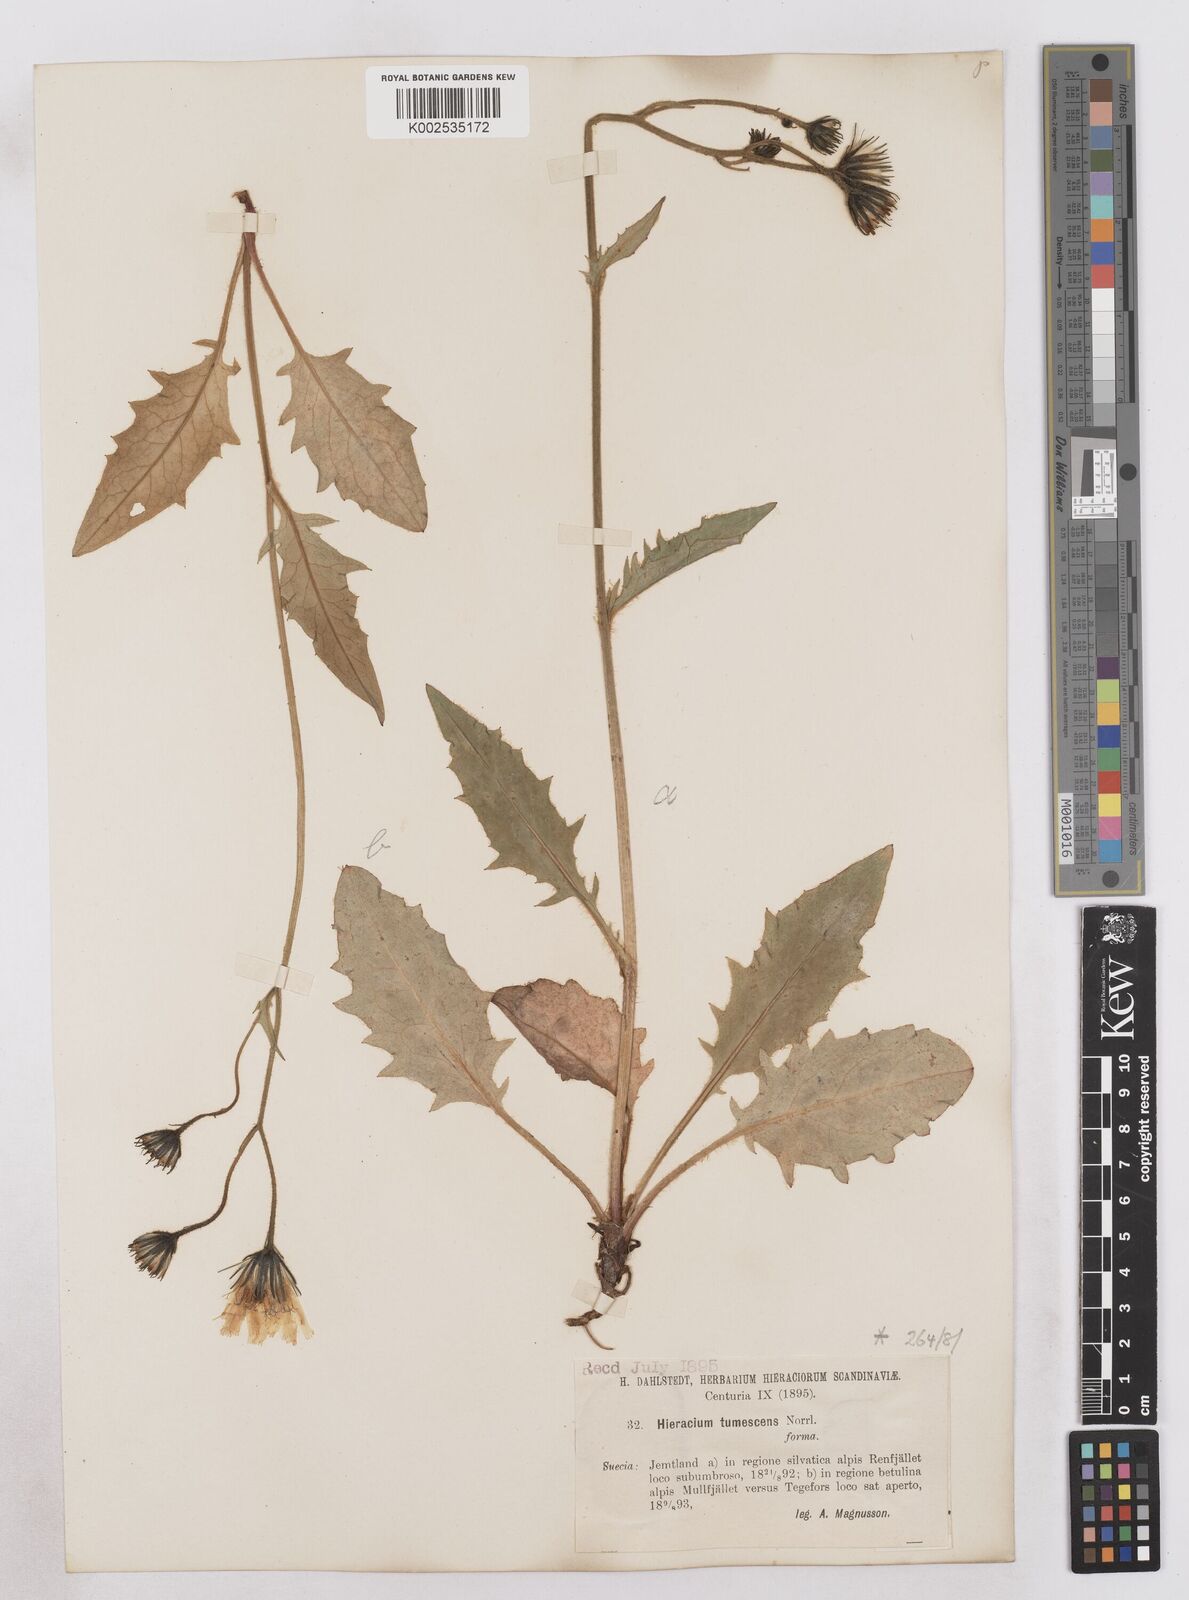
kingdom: Plantae
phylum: Tracheophyta
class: Magnoliopsida
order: Asterales
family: Asteraceae
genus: Hieracium
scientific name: Hieracium tumescens
